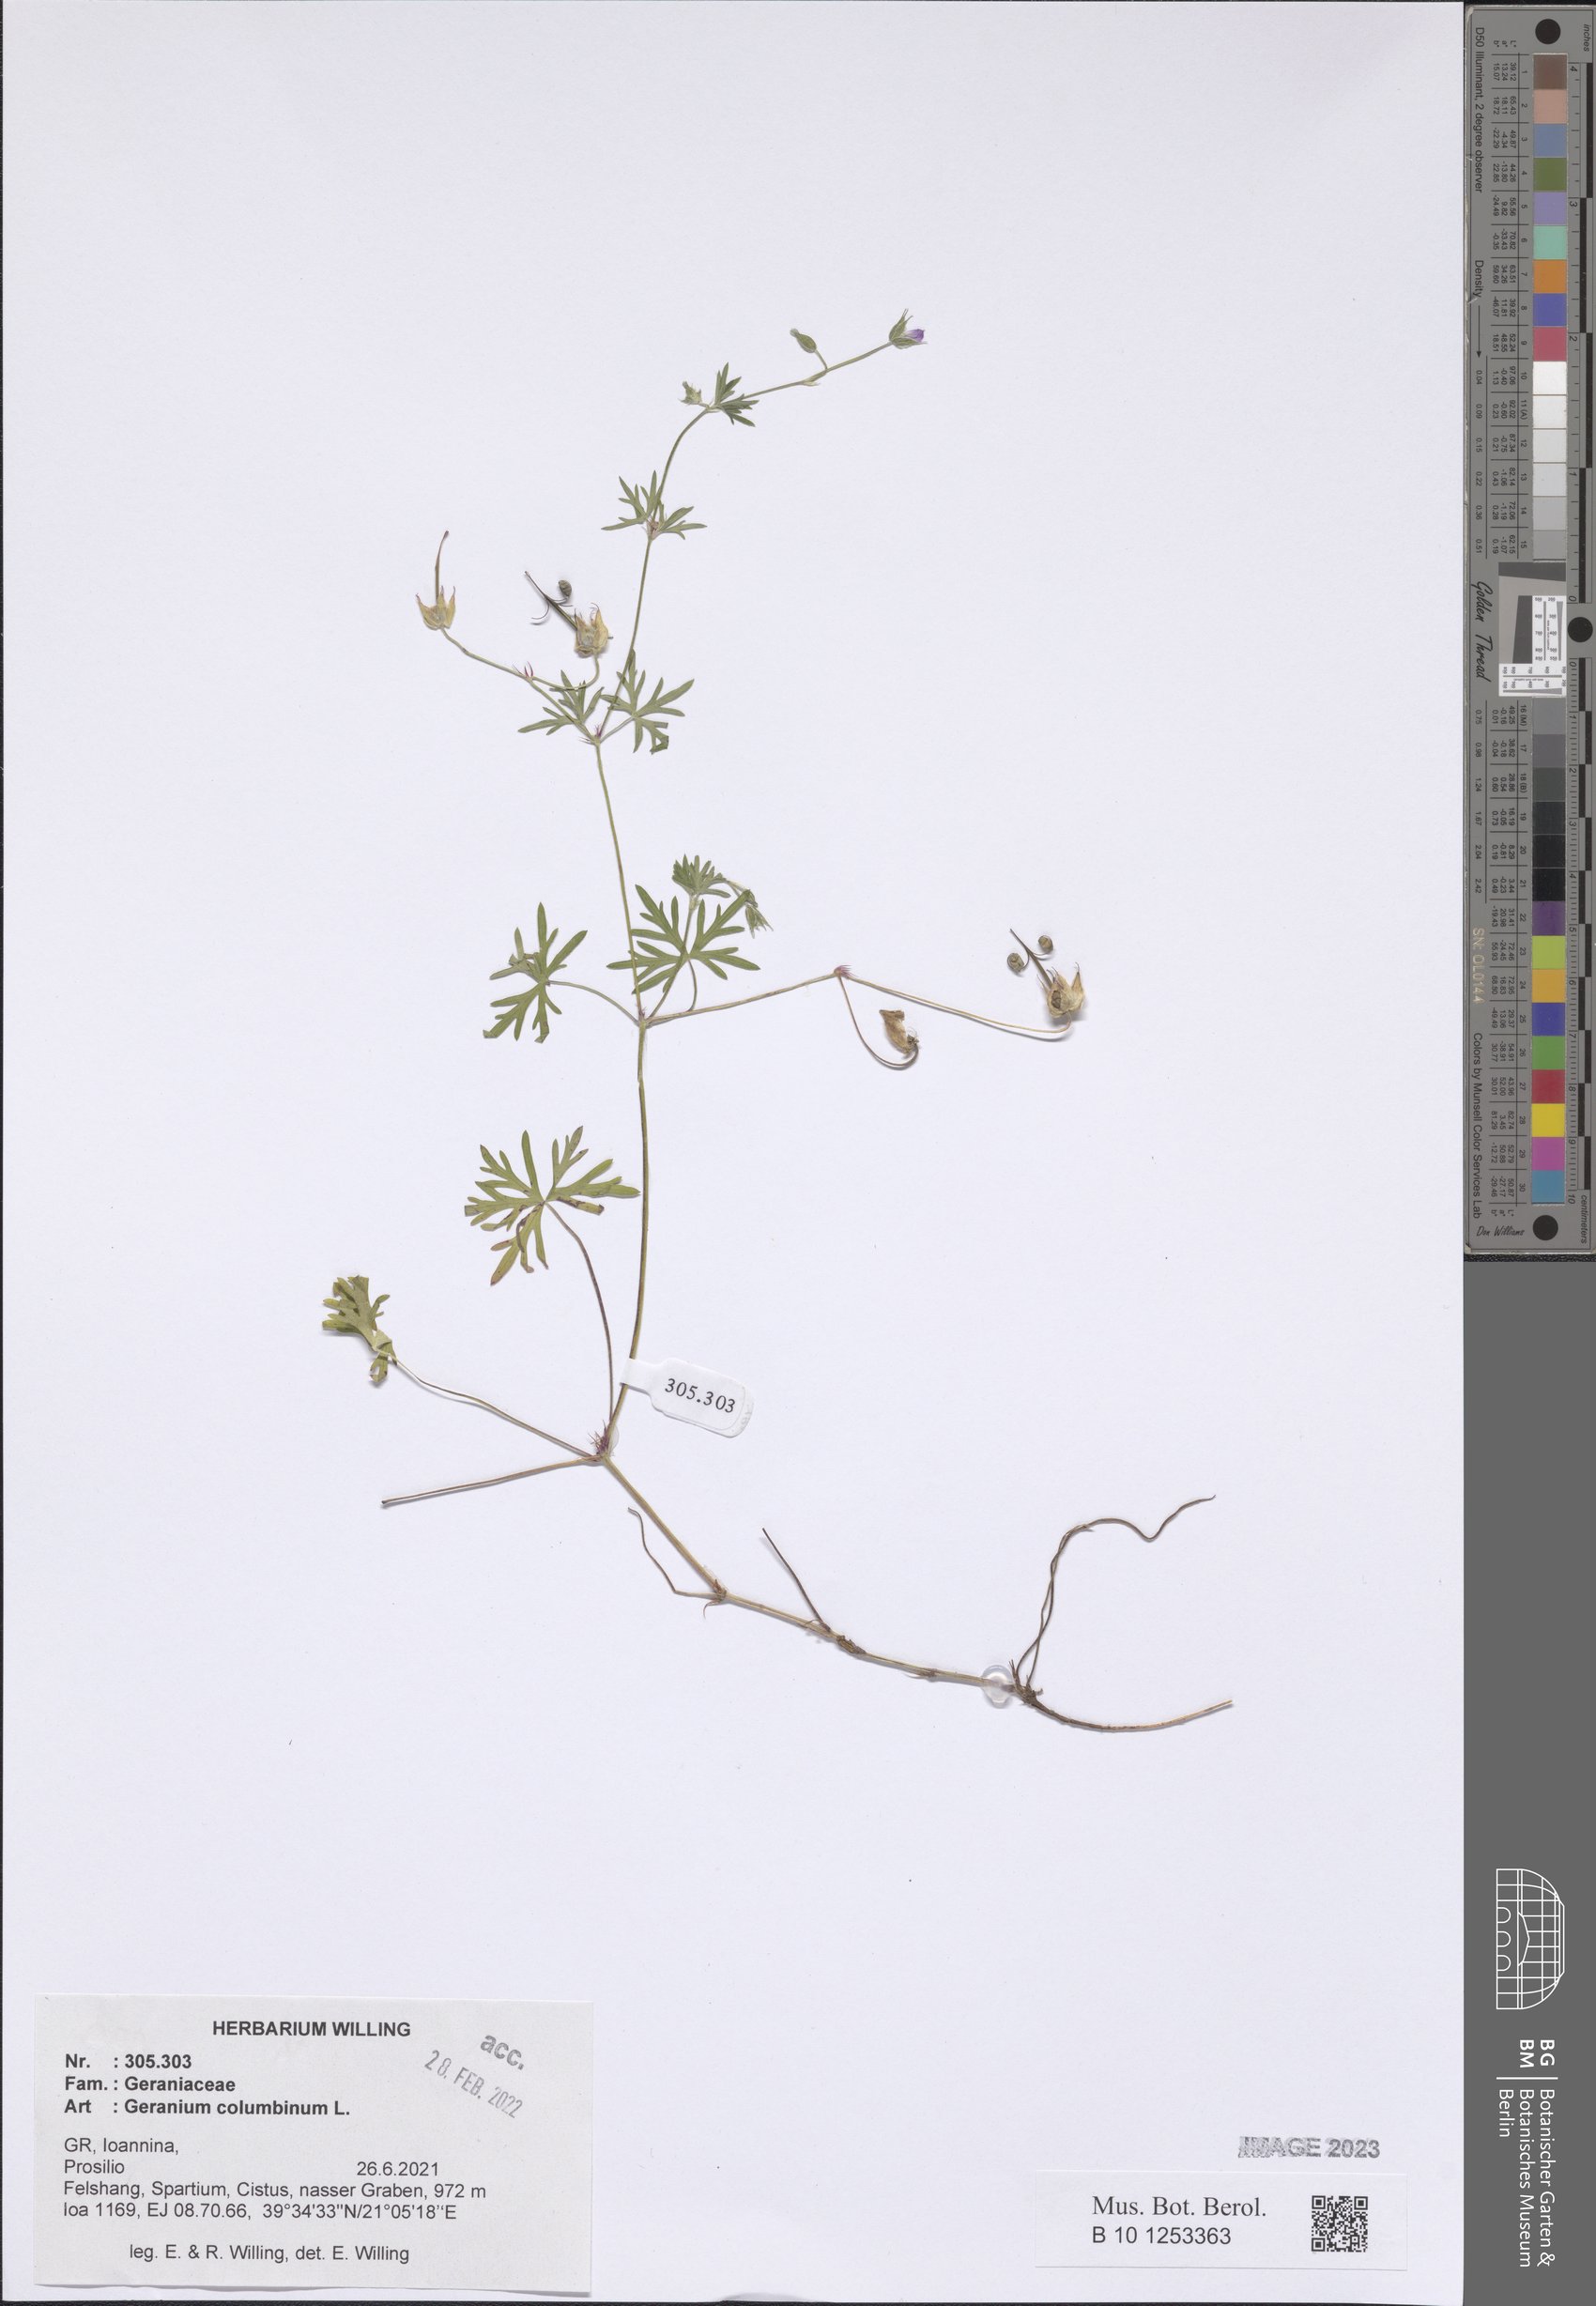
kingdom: Plantae
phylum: Tracheophyta
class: Magnoliopsida
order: Geraniales
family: Geraniaceae
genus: Geranium
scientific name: Geranium columbinum
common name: Long-stalked crane's-bill
